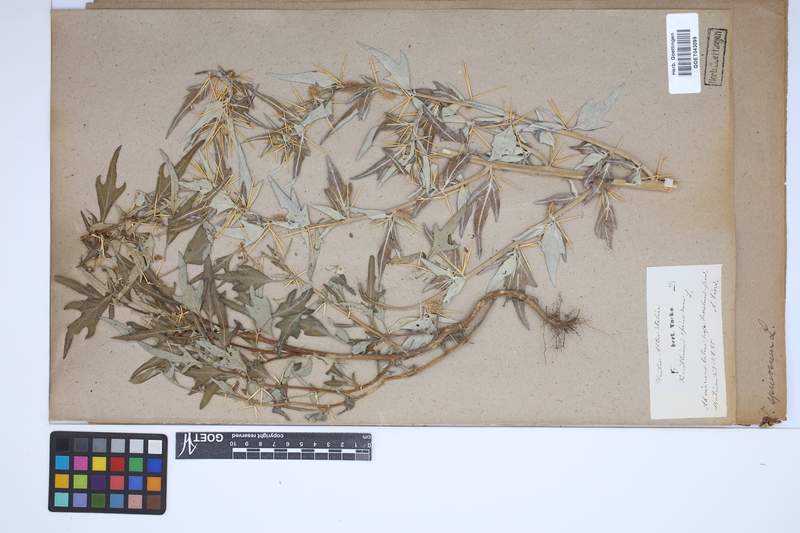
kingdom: Plantae
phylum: Tracheophyta
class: Magnoliopsida
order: Asterales
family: Asteraceae
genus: Xanthium
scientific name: Xanthium spinosum
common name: Spiny cocklebur
